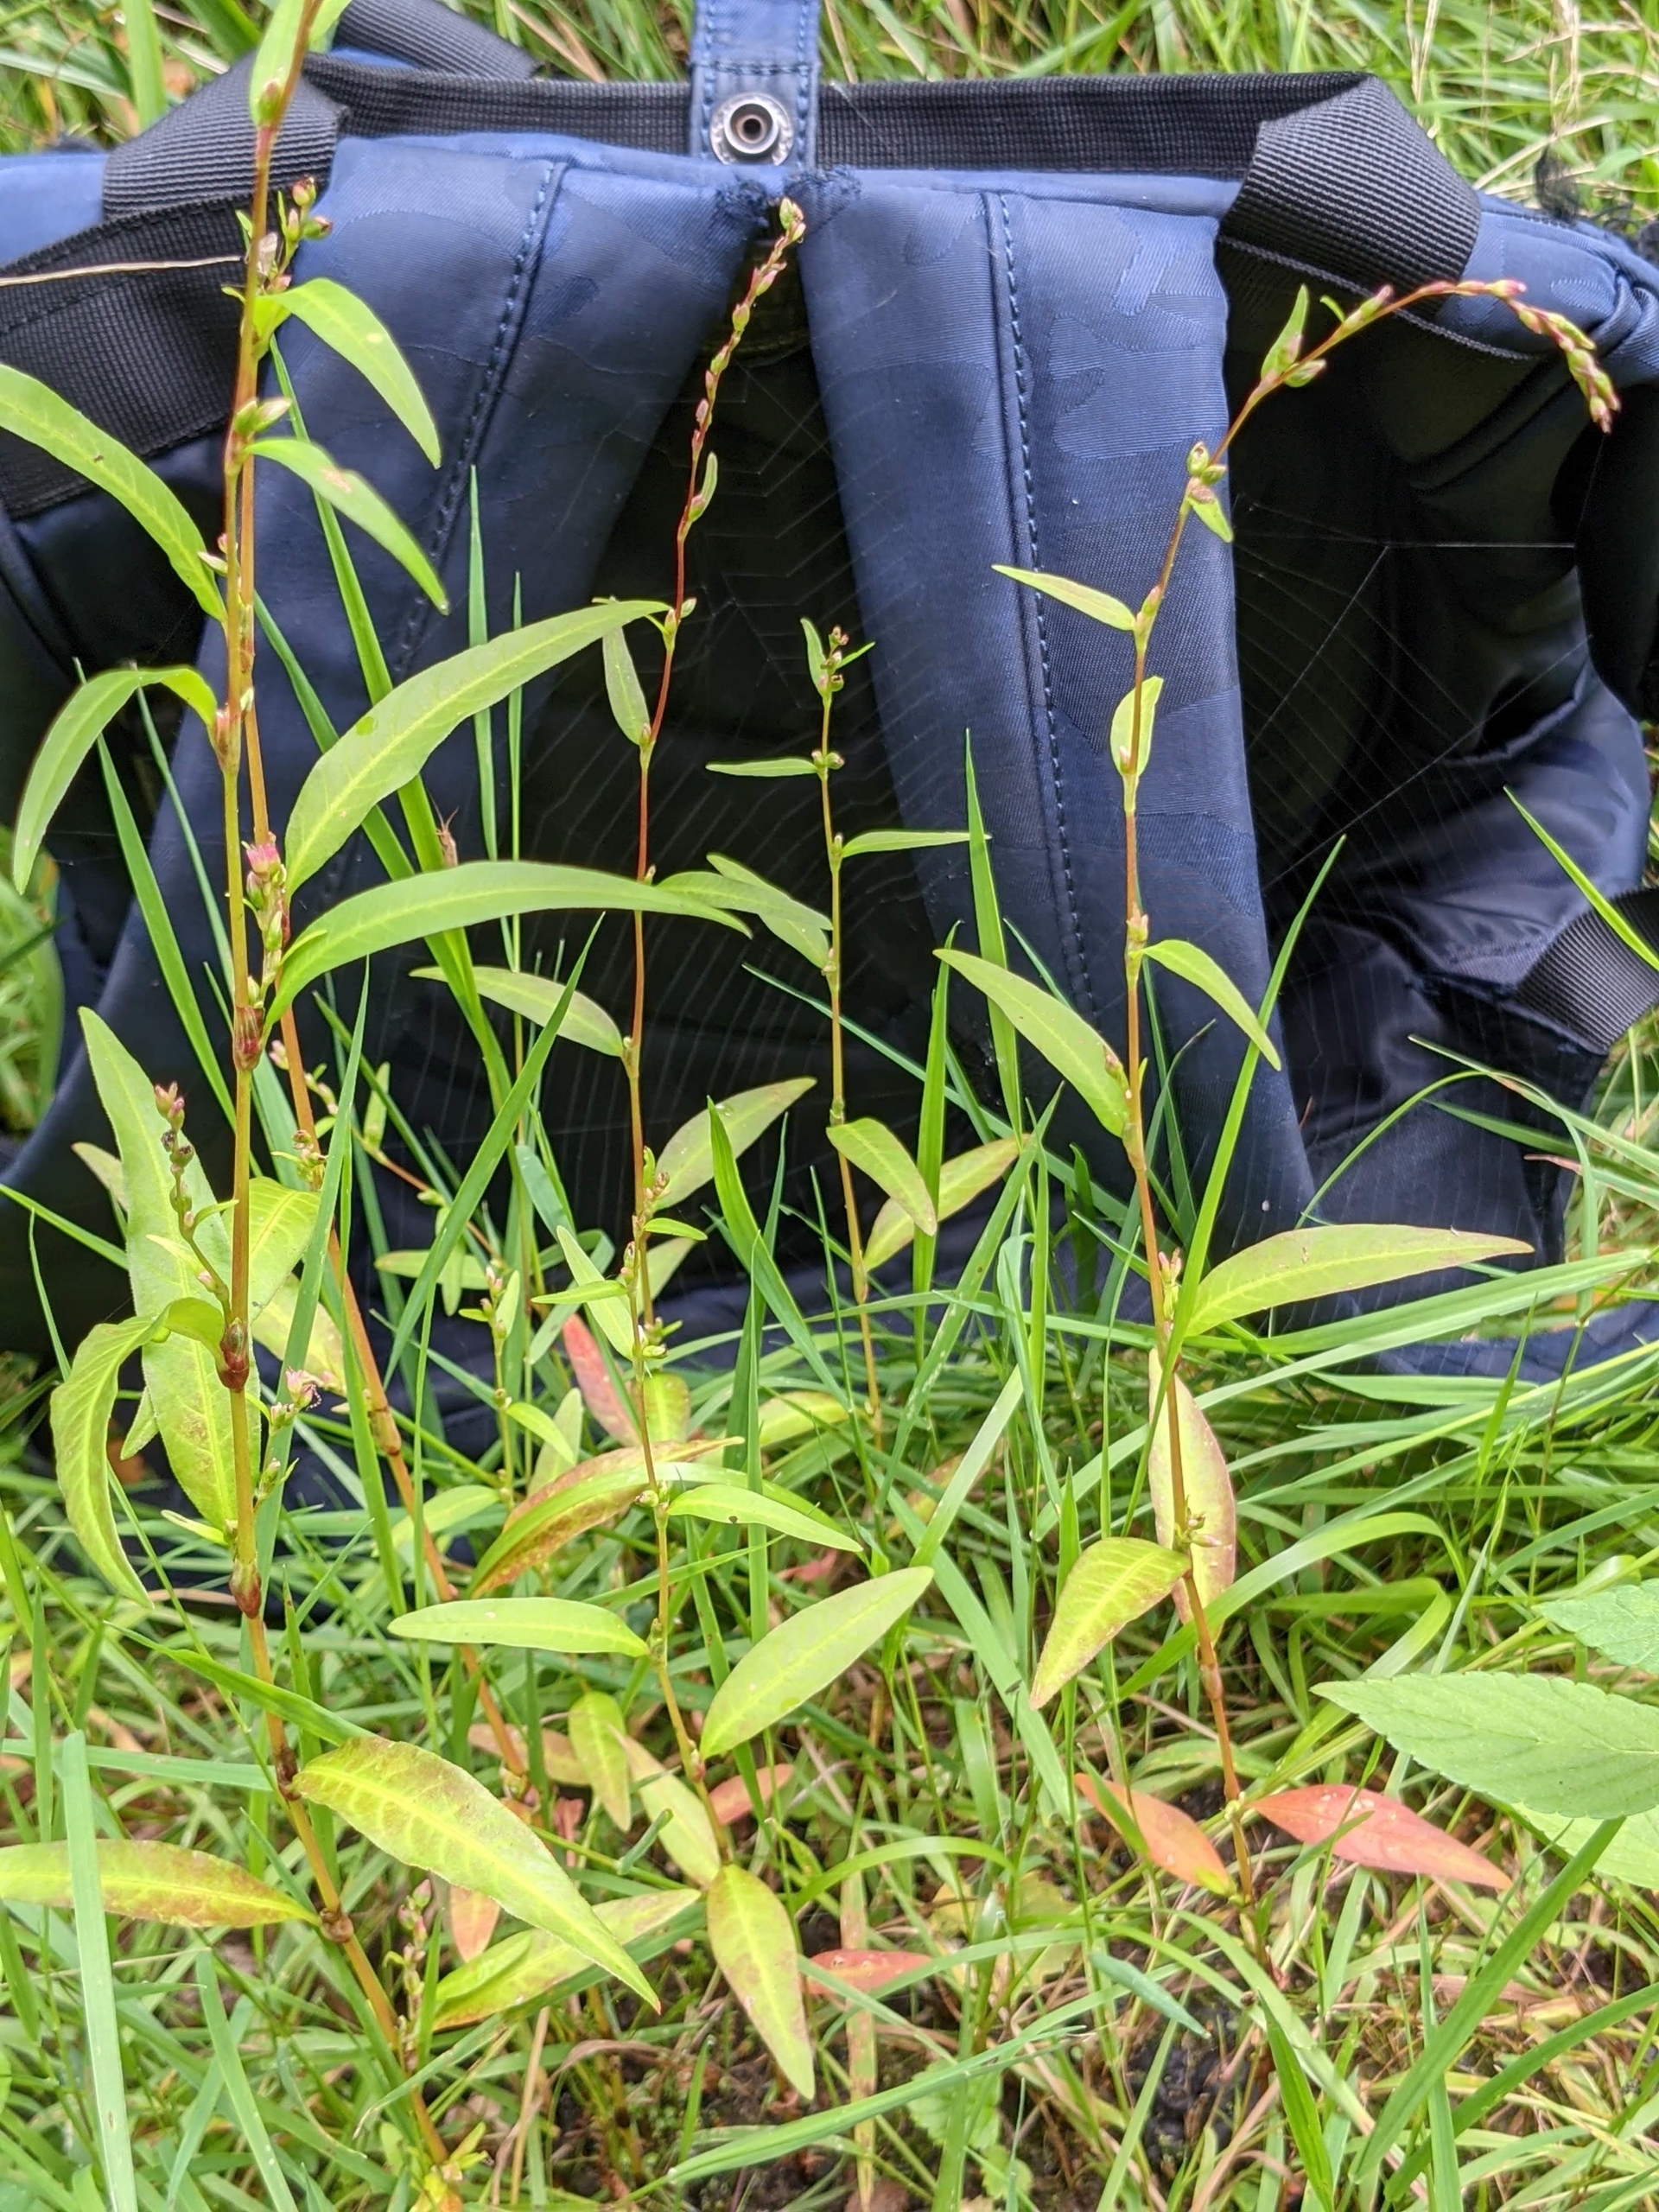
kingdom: Plantae
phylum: Tracheophyta
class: Magnoliopsida
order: Caryophyllales
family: Polygonaceae
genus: Persicaria
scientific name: Persicaria hydropiper
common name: Bidende pileurt
